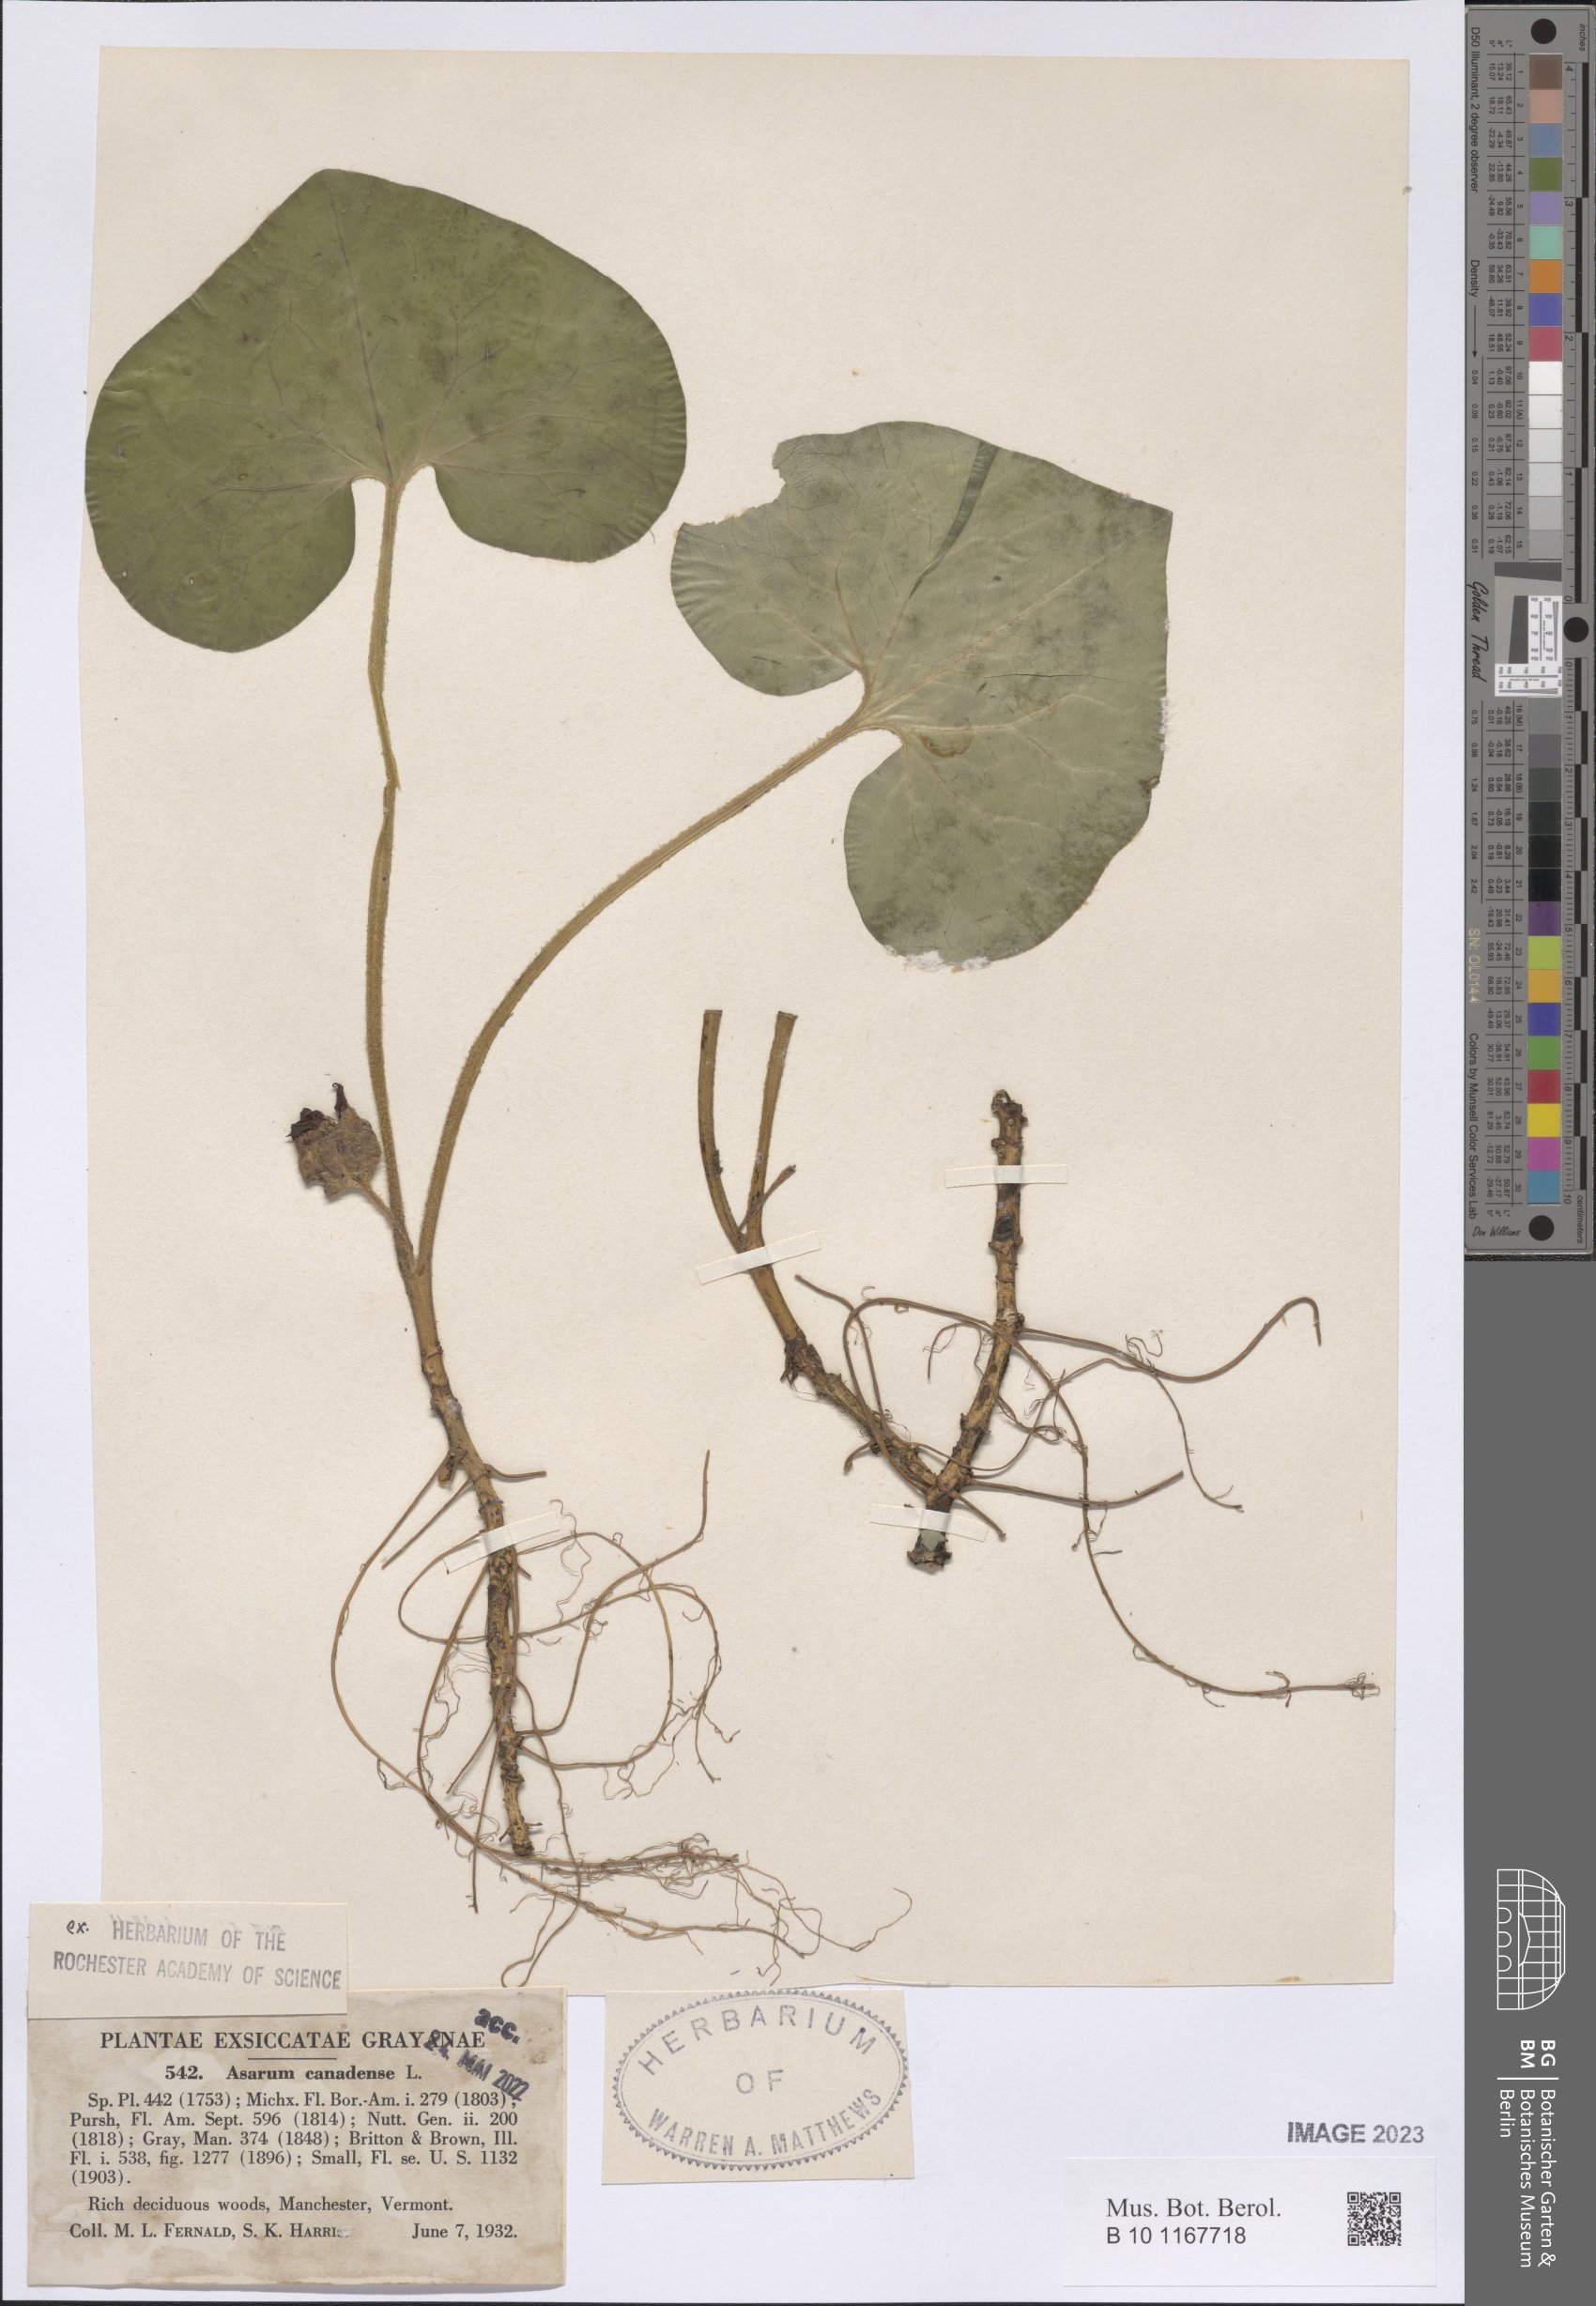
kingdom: Plantae
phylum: Tracheophyta
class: Magnoliopsida
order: Piperales
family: Aristolochiaceae
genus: Asarum
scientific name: Asarum canadense
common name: Wild ginger
